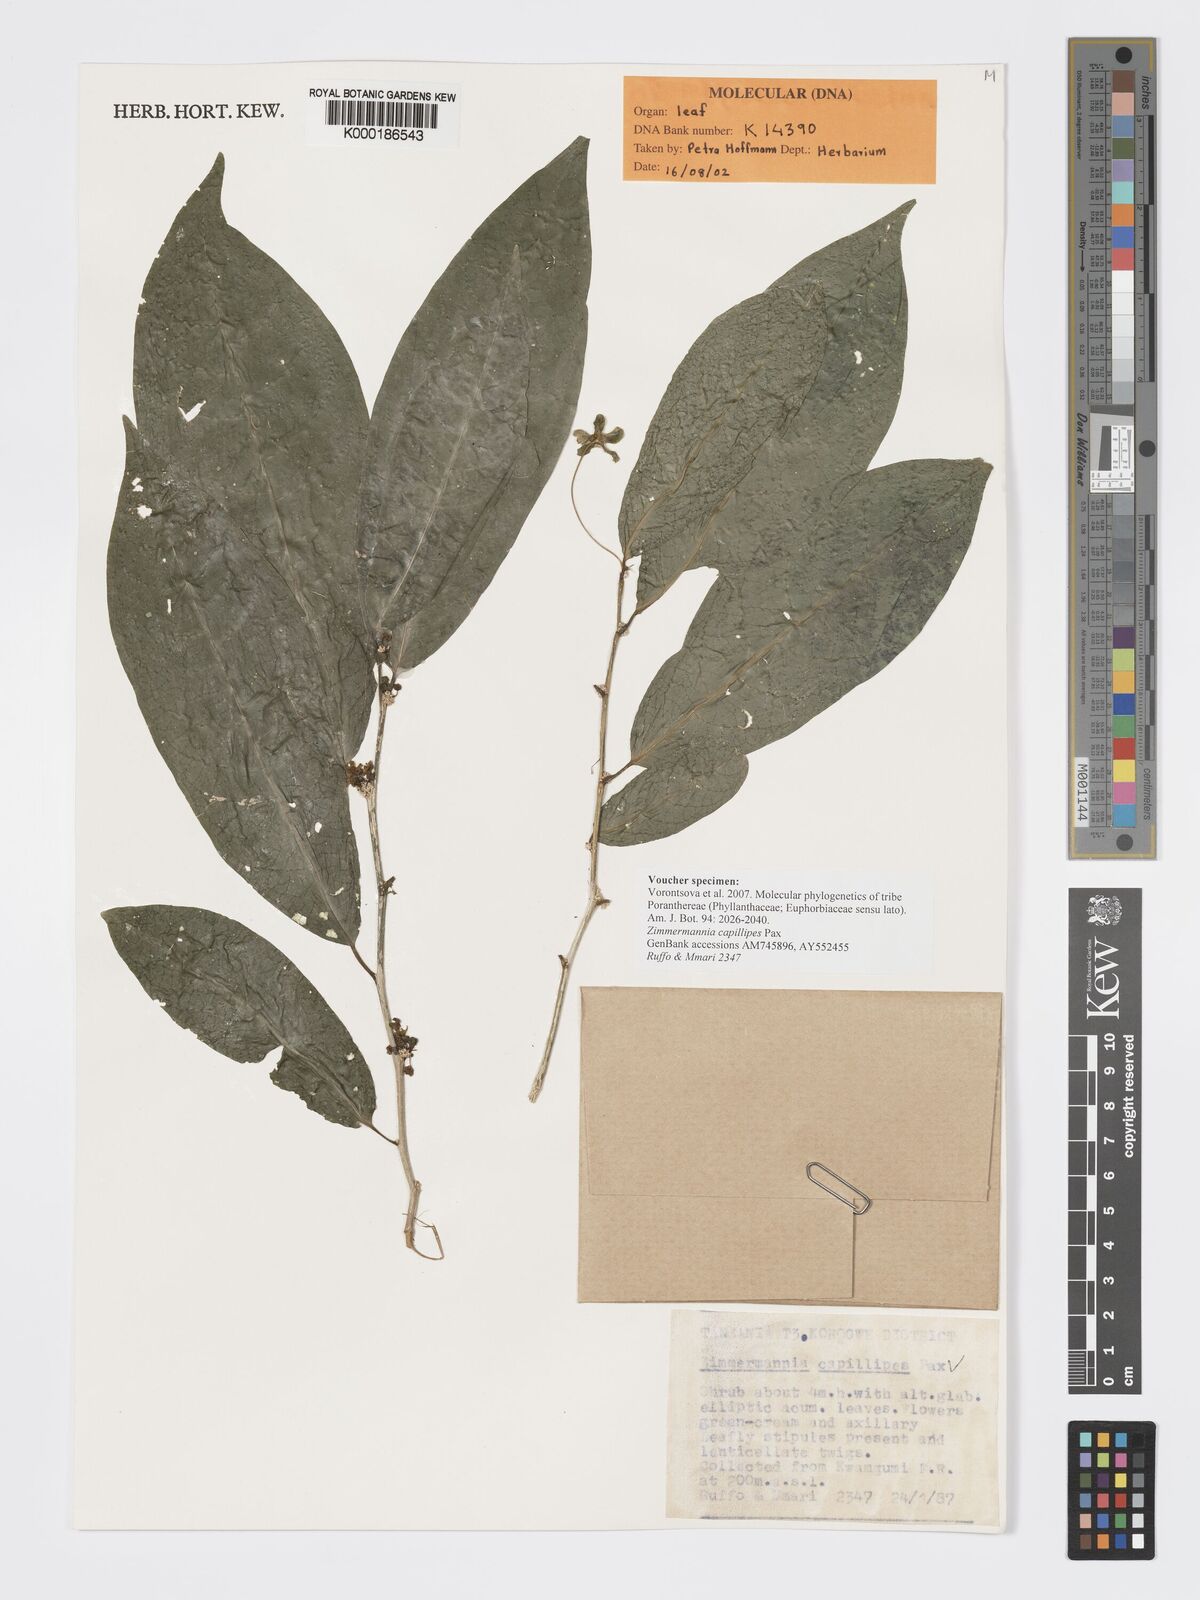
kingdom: Plantae
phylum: Tracheophyta
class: Magnoliopsida
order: Malpighiales
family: Phyllanthaceae
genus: Meineckia
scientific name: Meineckia paxii
